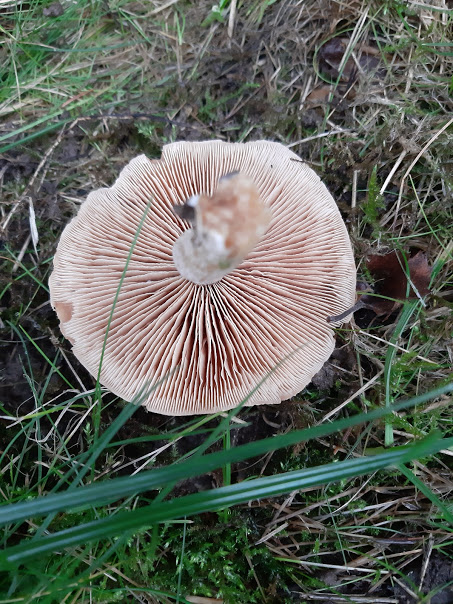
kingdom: Fungi
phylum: Basidiomycota
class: Agaricomycetes
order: Agaricales
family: Hymenogastraceae
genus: Hebeloma
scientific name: Hebeloma theobrominum
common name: rødbrun tåreblad
